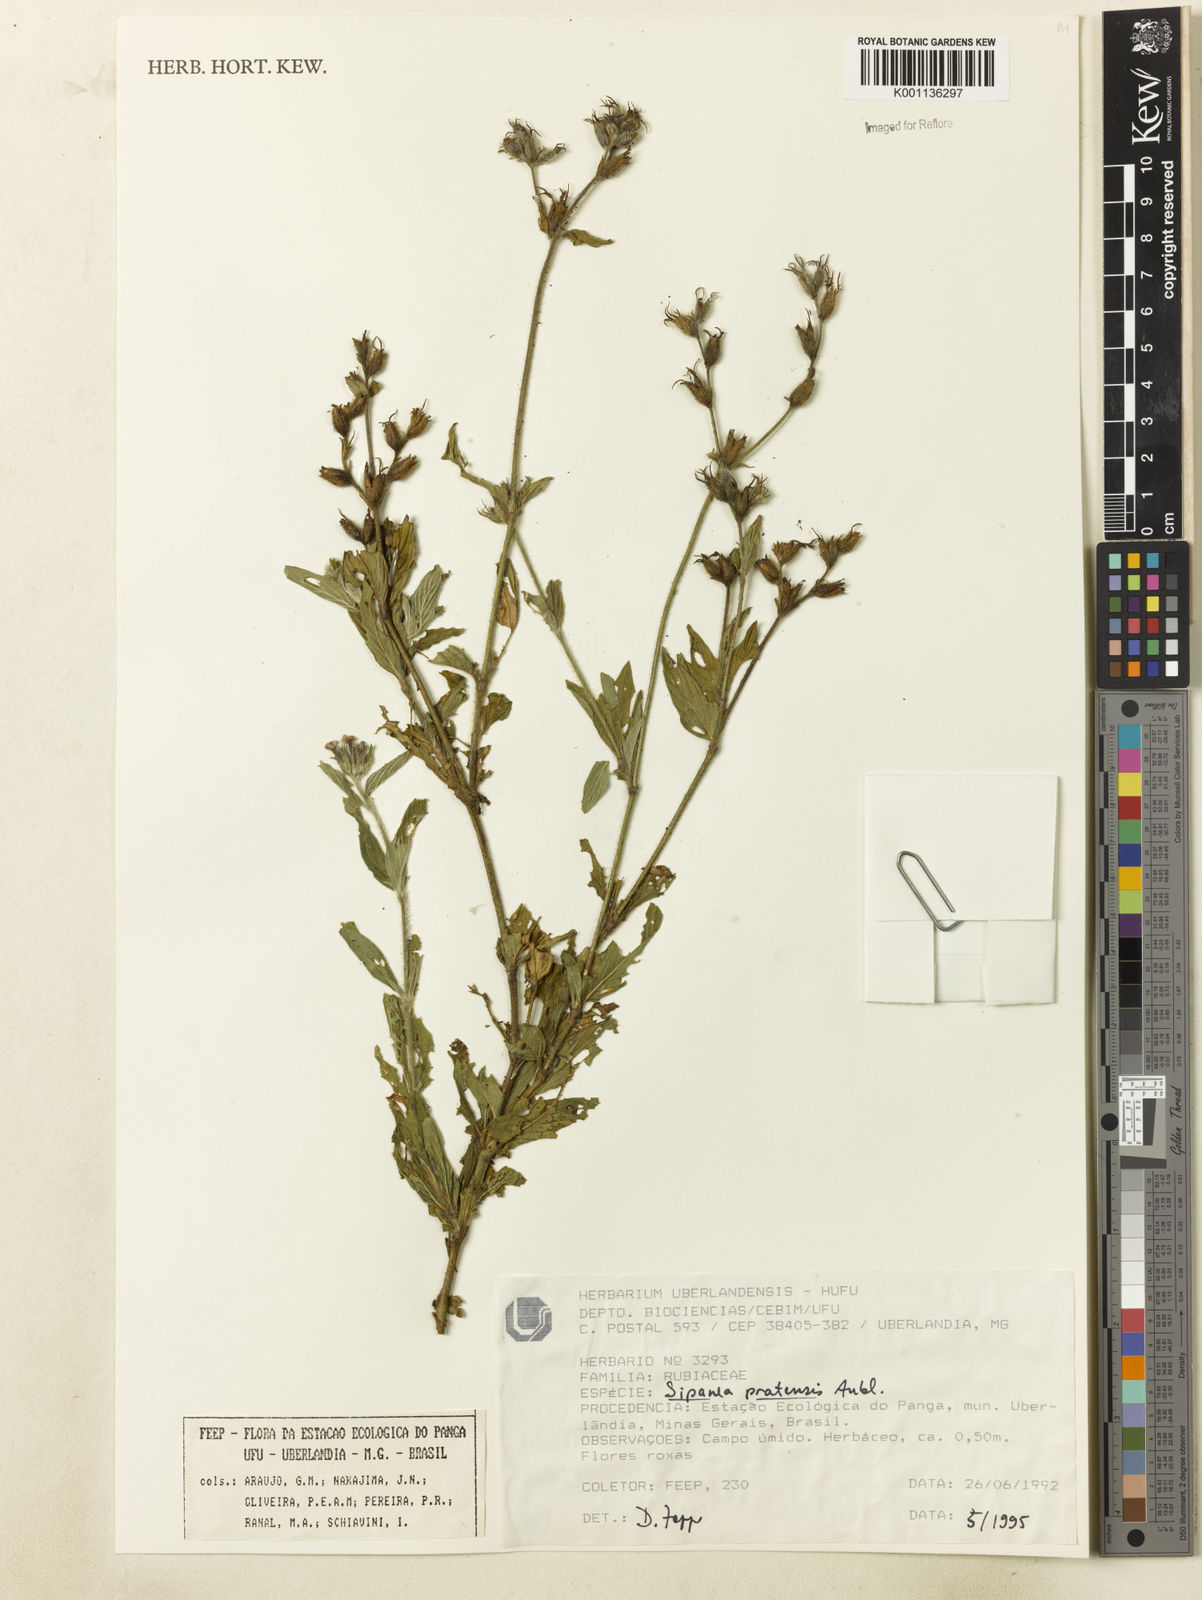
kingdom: Plantae
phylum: Tracheophyta
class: Magnoliopsida
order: Gentianales
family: Rubiaceae
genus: Sipanea
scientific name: Sipanea pratensis
